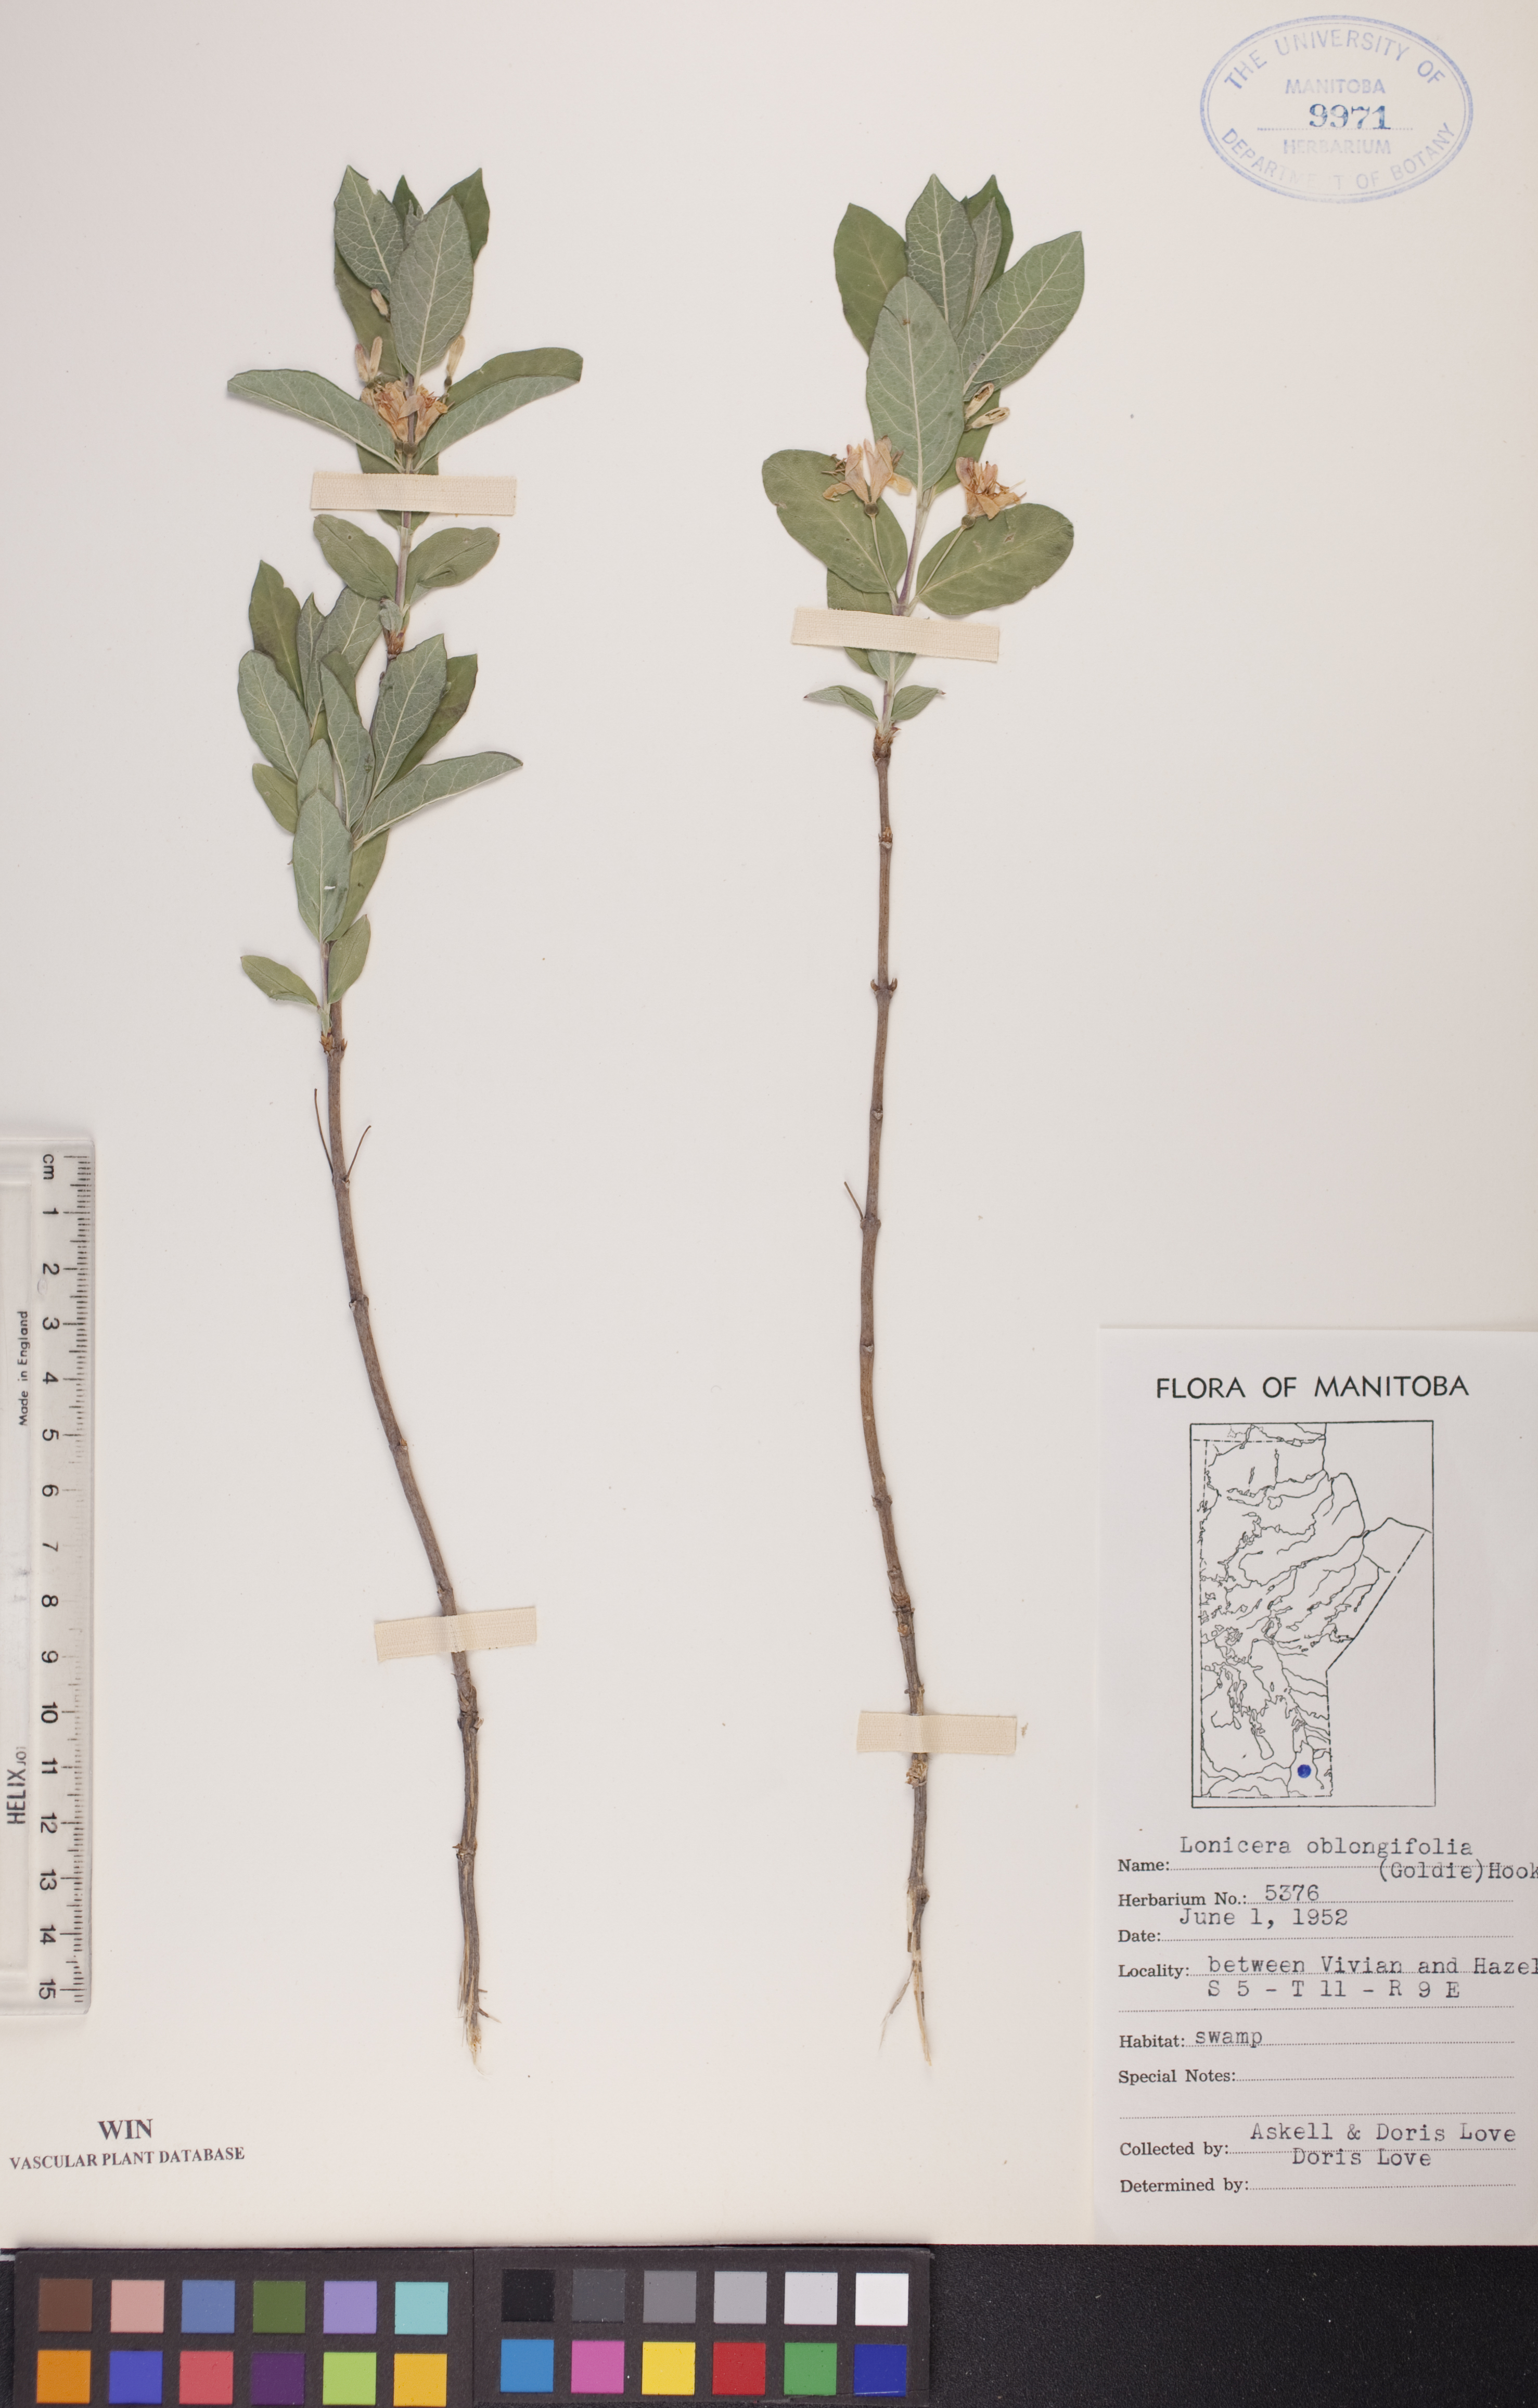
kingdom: Plantae
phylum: Tracheophyta
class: Magnoliopsida
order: Dipsacales
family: Caprifoliaceae
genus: Lonicera
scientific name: Lonicera oblongifolia
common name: Swamp fly honeysuckle
